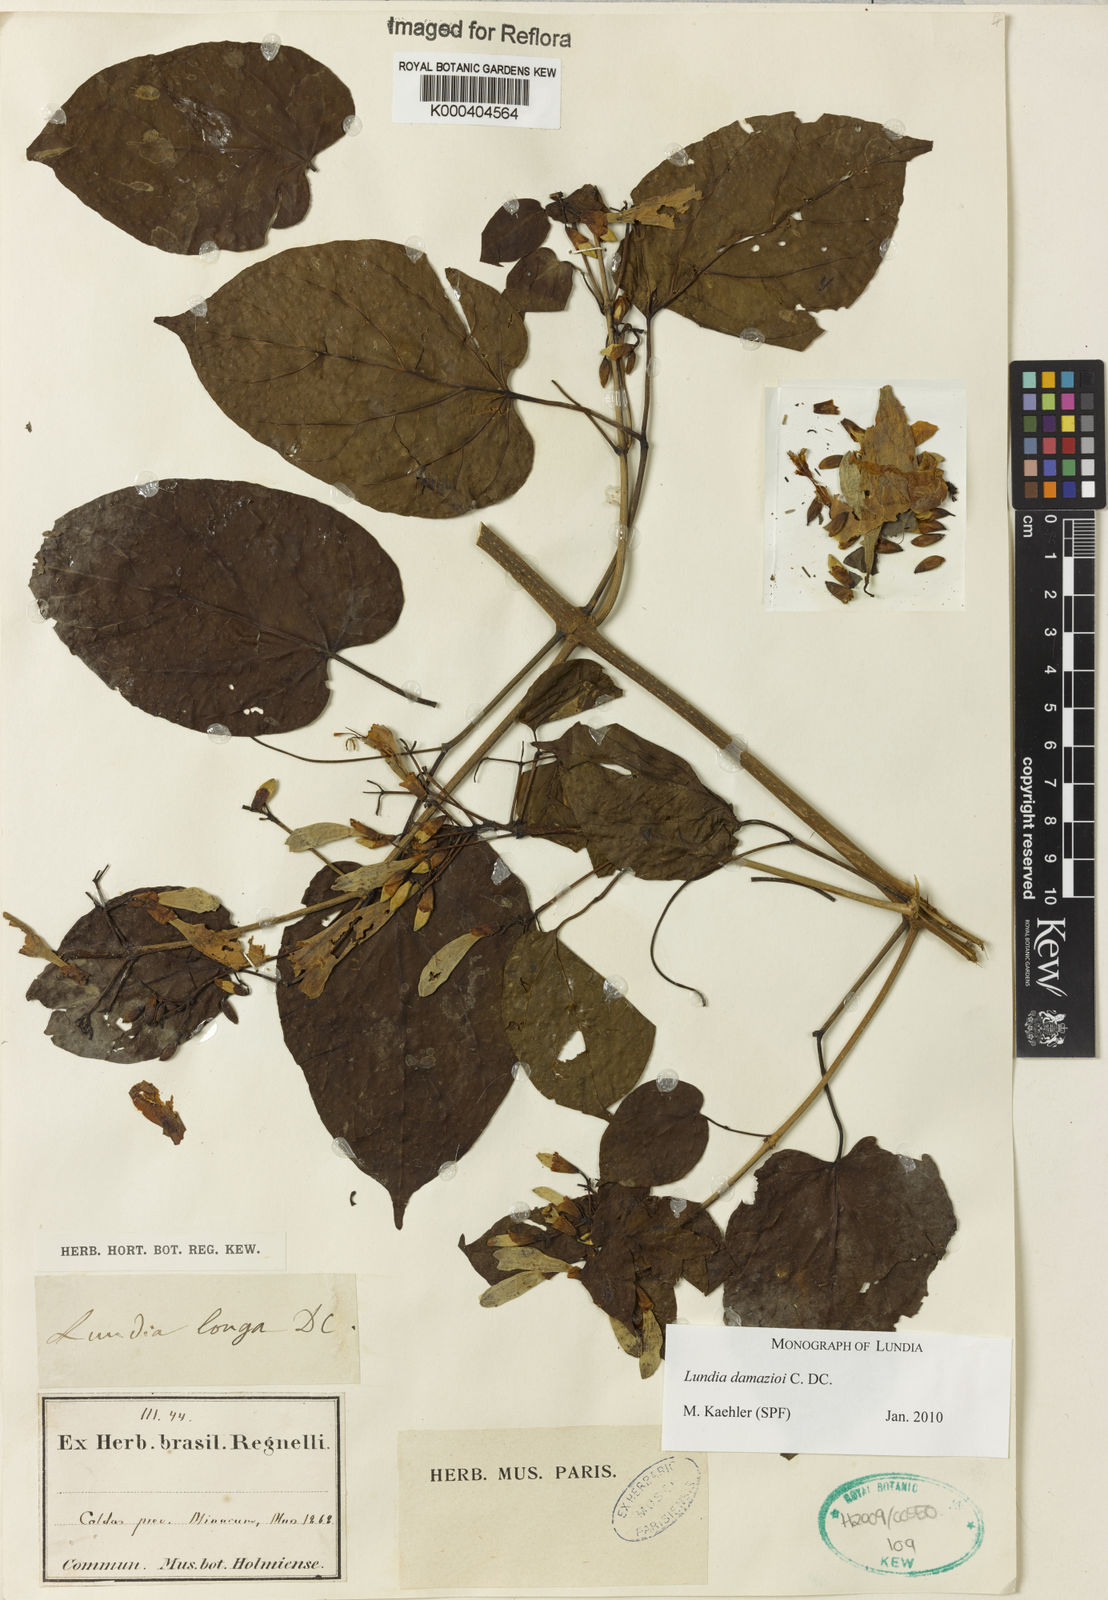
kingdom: Plantae
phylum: Tracheophyta
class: Magnoliopsida
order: Lamiales
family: Bignoniaceae
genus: Lundia
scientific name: Lundia
